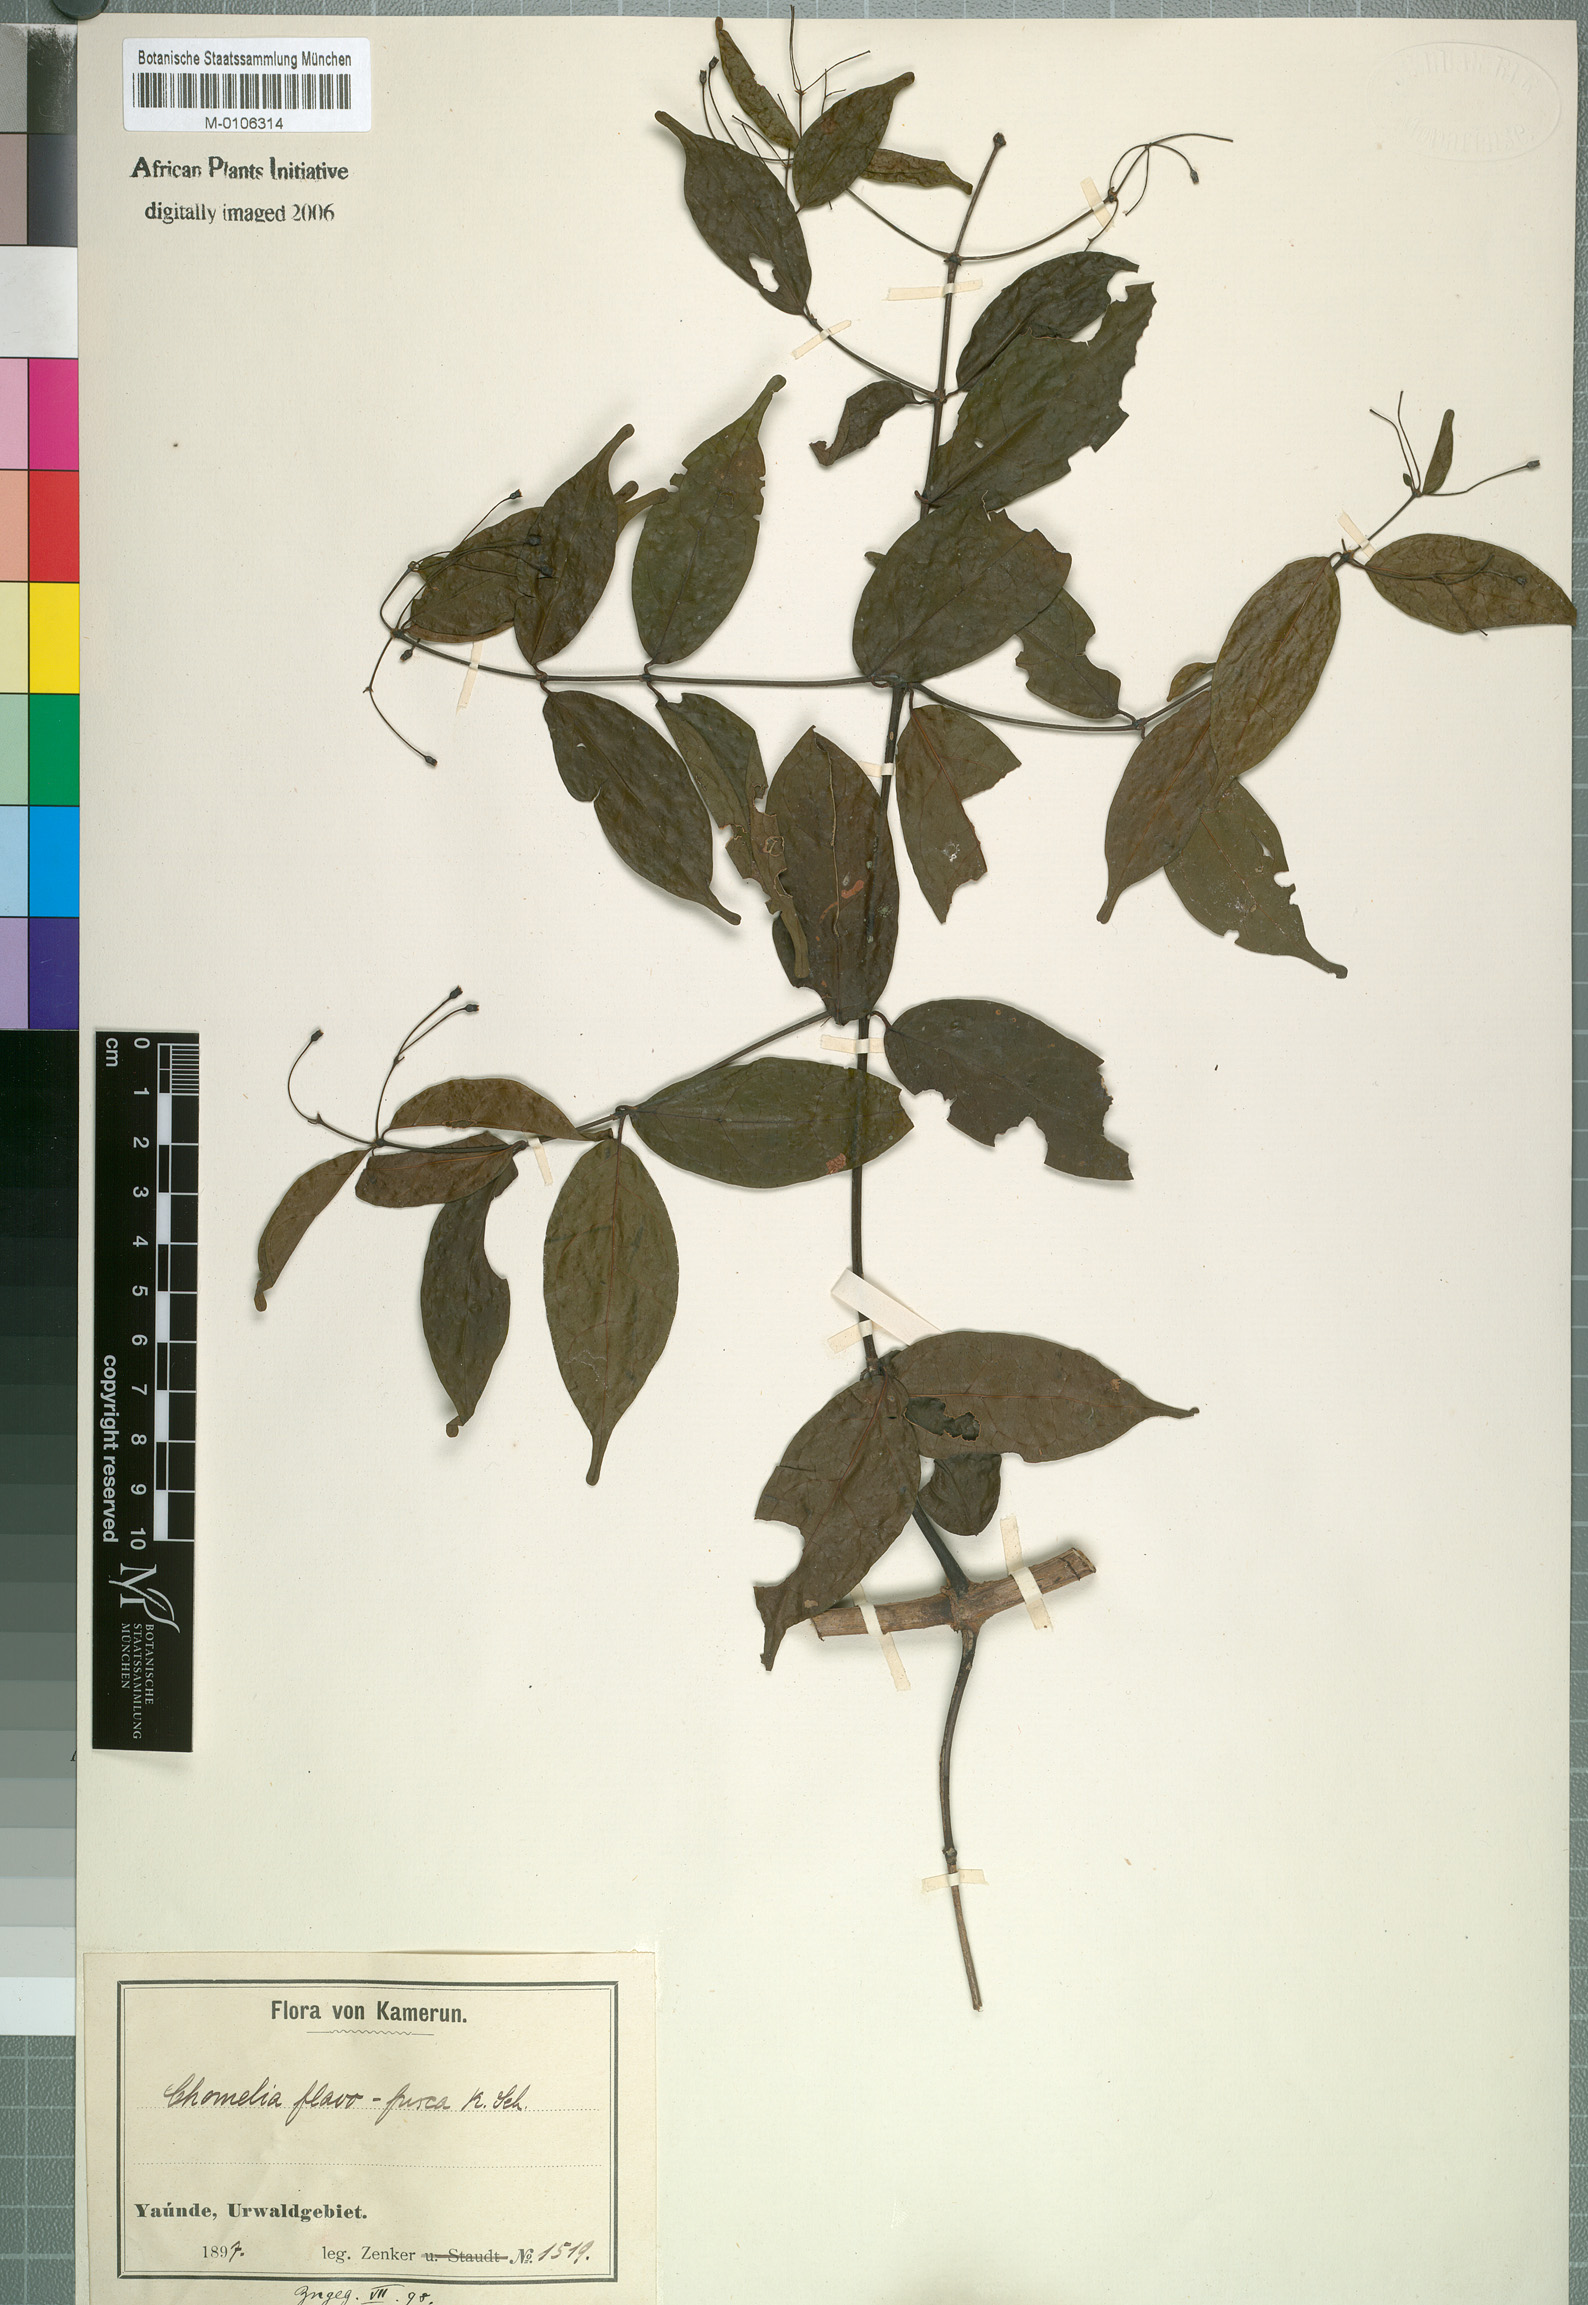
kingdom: Plantae
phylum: Tracheophyta
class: Magnoliopsida
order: Gentianales
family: Rubiaceae
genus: Tarenna
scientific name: Tarenna fuscoflava
